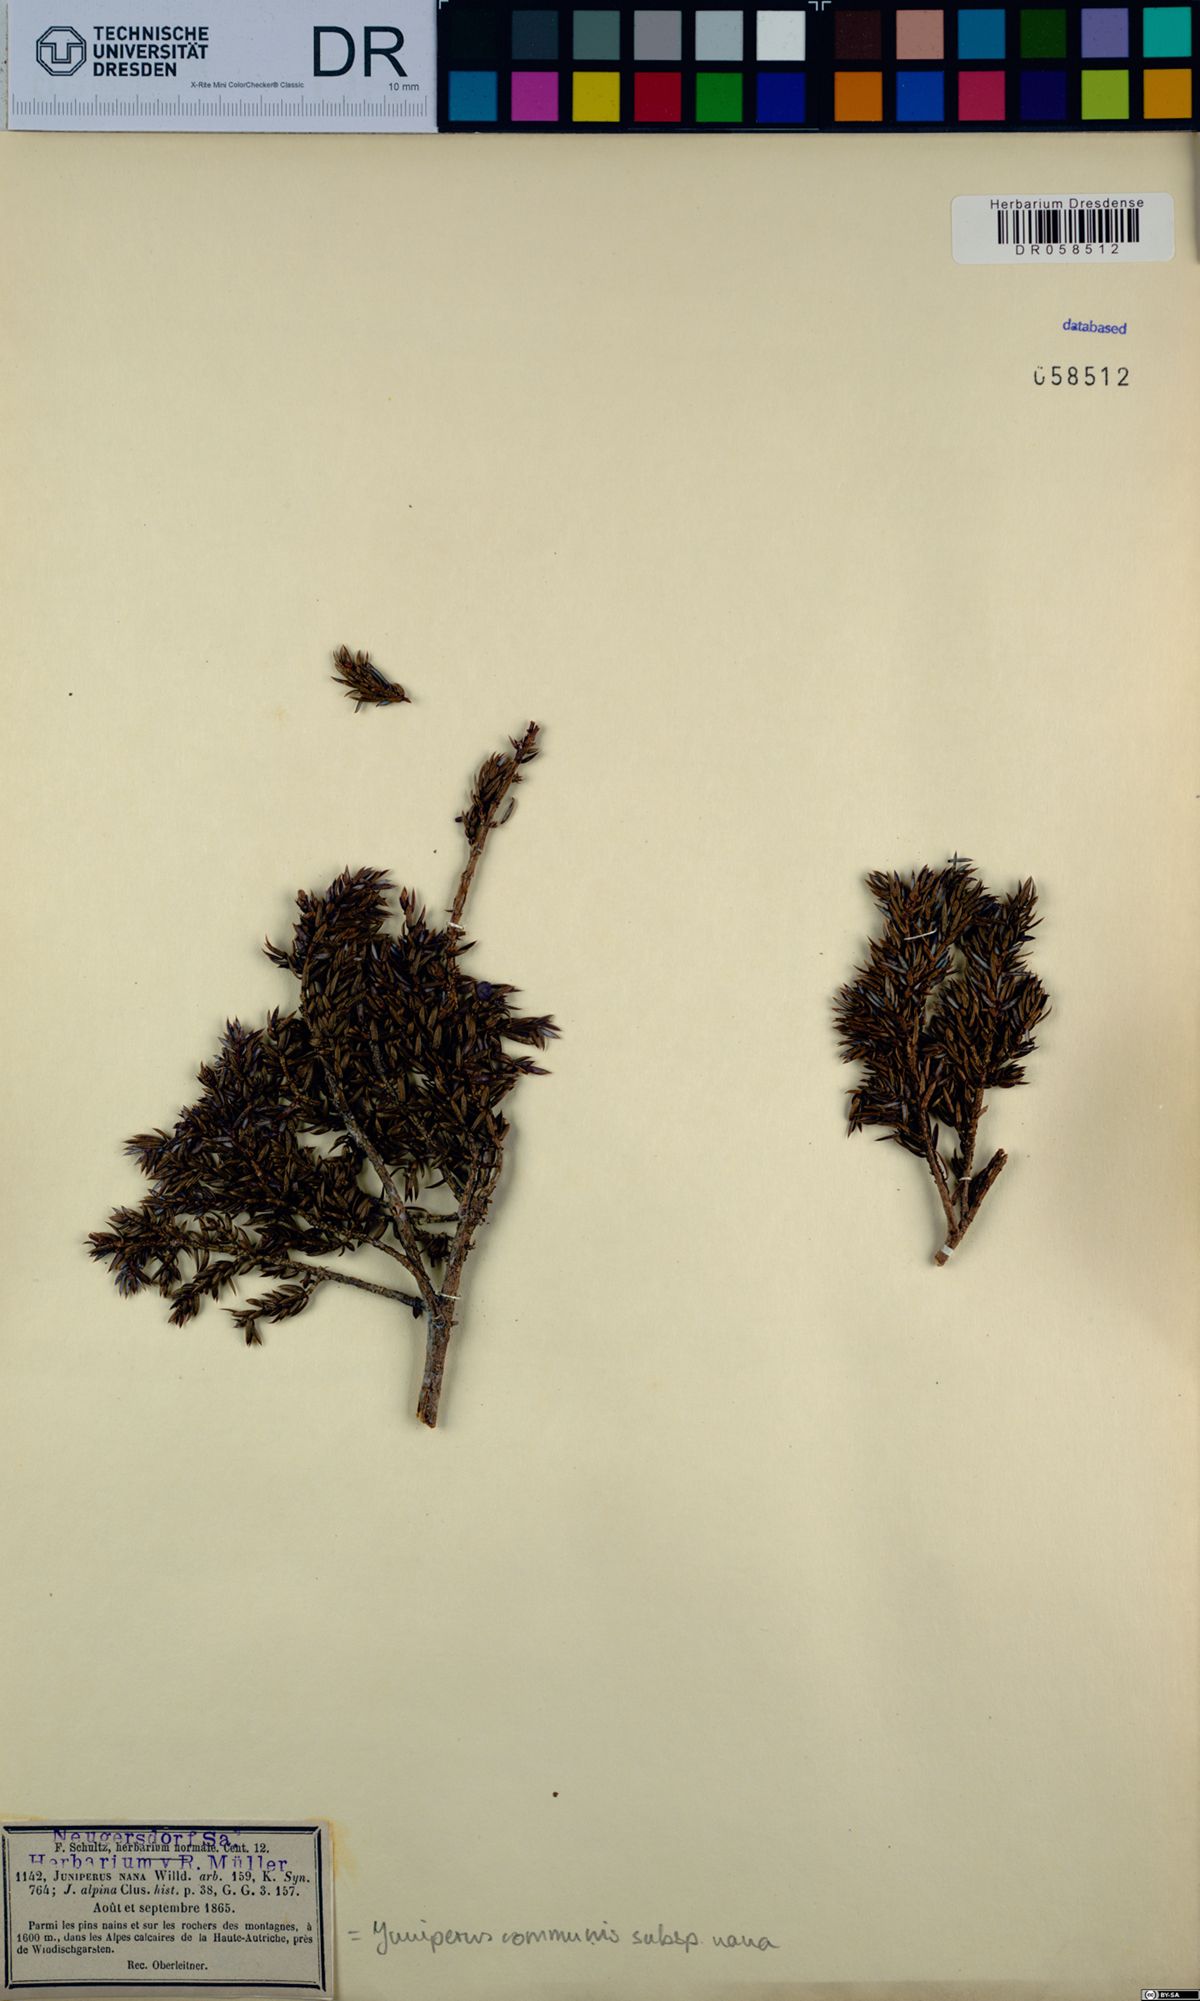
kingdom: Plantae
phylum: Tracheophyta
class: Pinopsida
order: Pinales
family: Cupressaceae
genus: Juniperus
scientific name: Juniperus communis
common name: Common juniper
